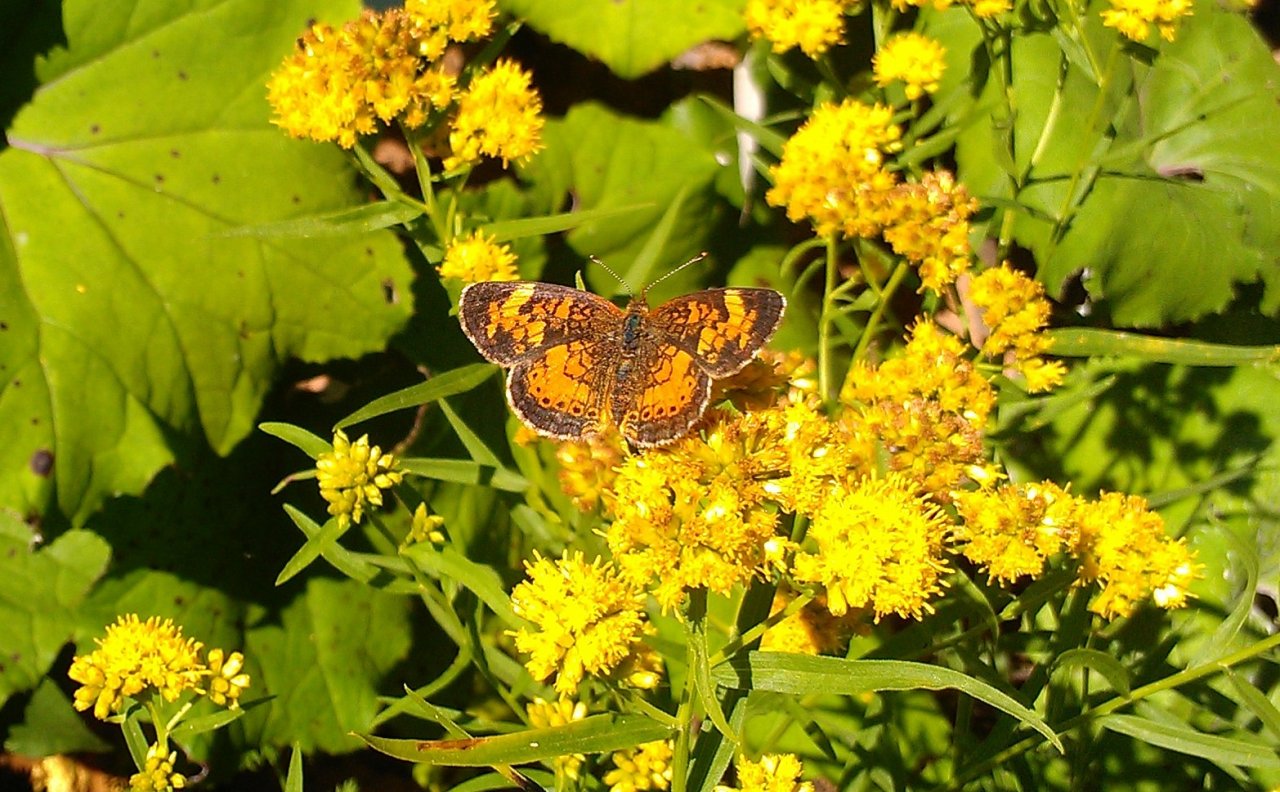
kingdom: Animalia
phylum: Arthropoda
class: Insecta
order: Lepidoptera
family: Nymphalidae
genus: Phyciodes
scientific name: Phyciodes tharos
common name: Northern Crescent
